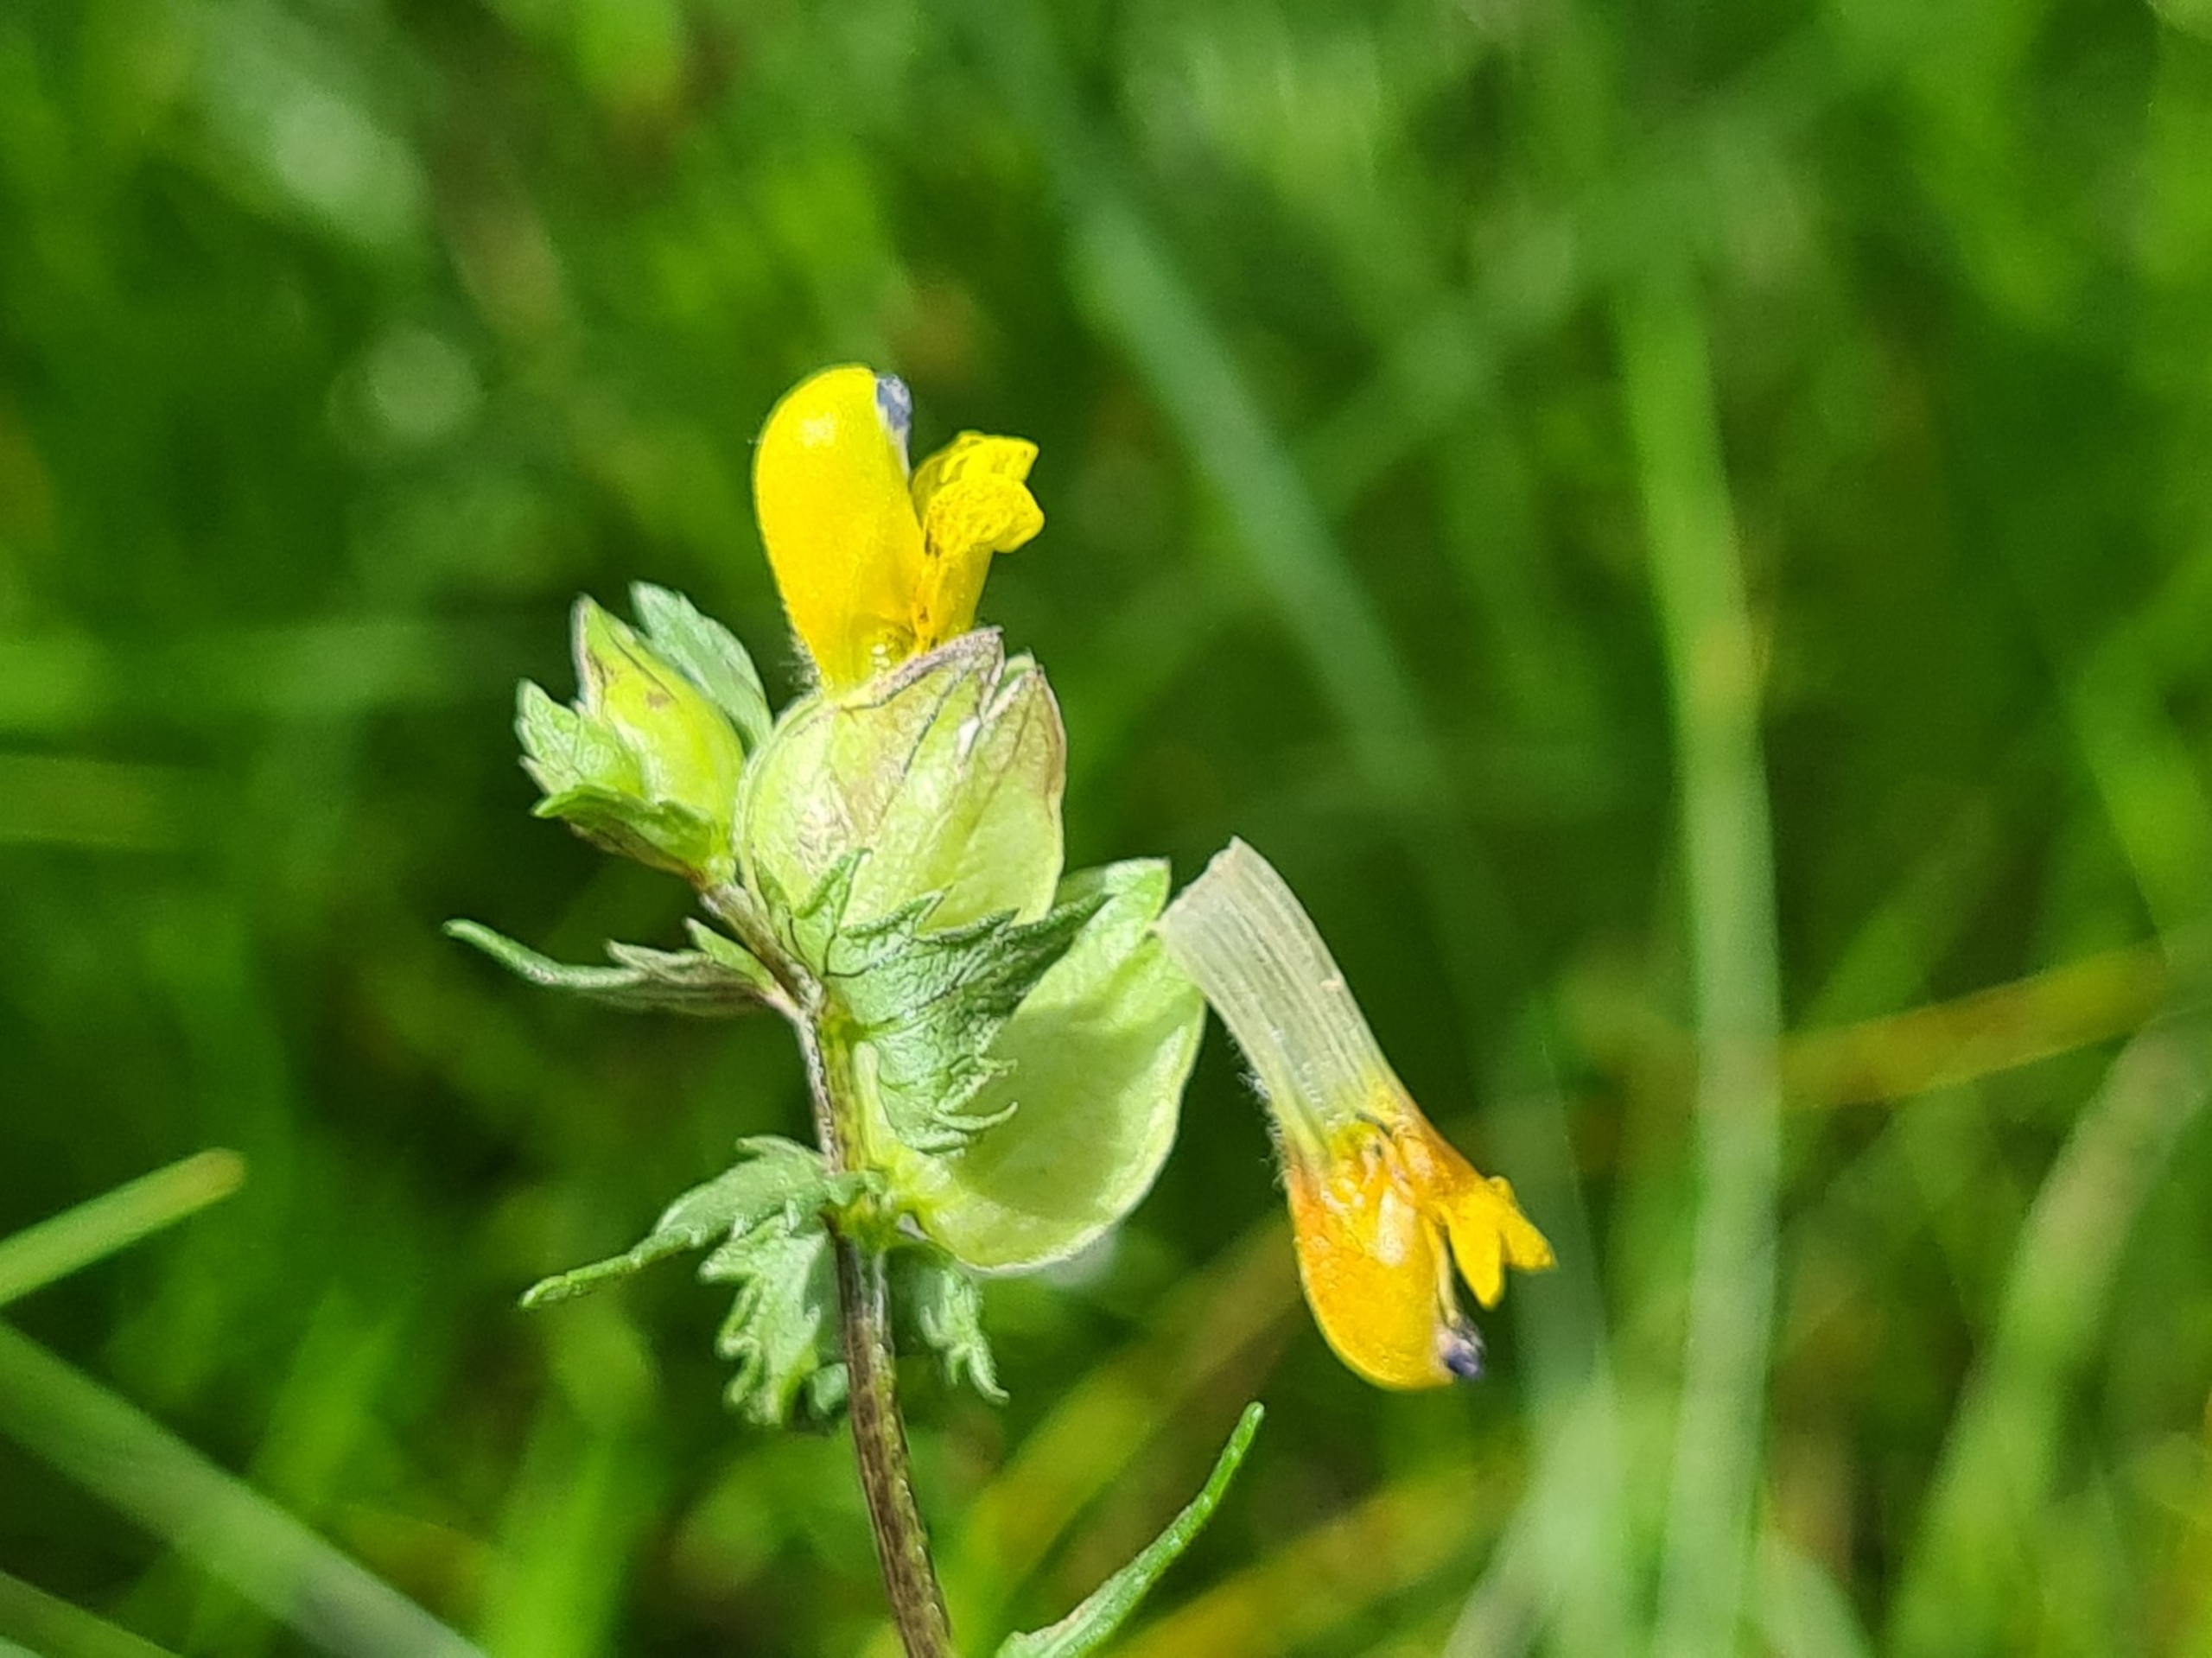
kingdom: Plantae
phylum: Tracheophyta
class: Magnoliopsida
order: Lamiales
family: Orobanchaceae
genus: Rhinanthus
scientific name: Rhinanthus
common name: Stor skjaller
